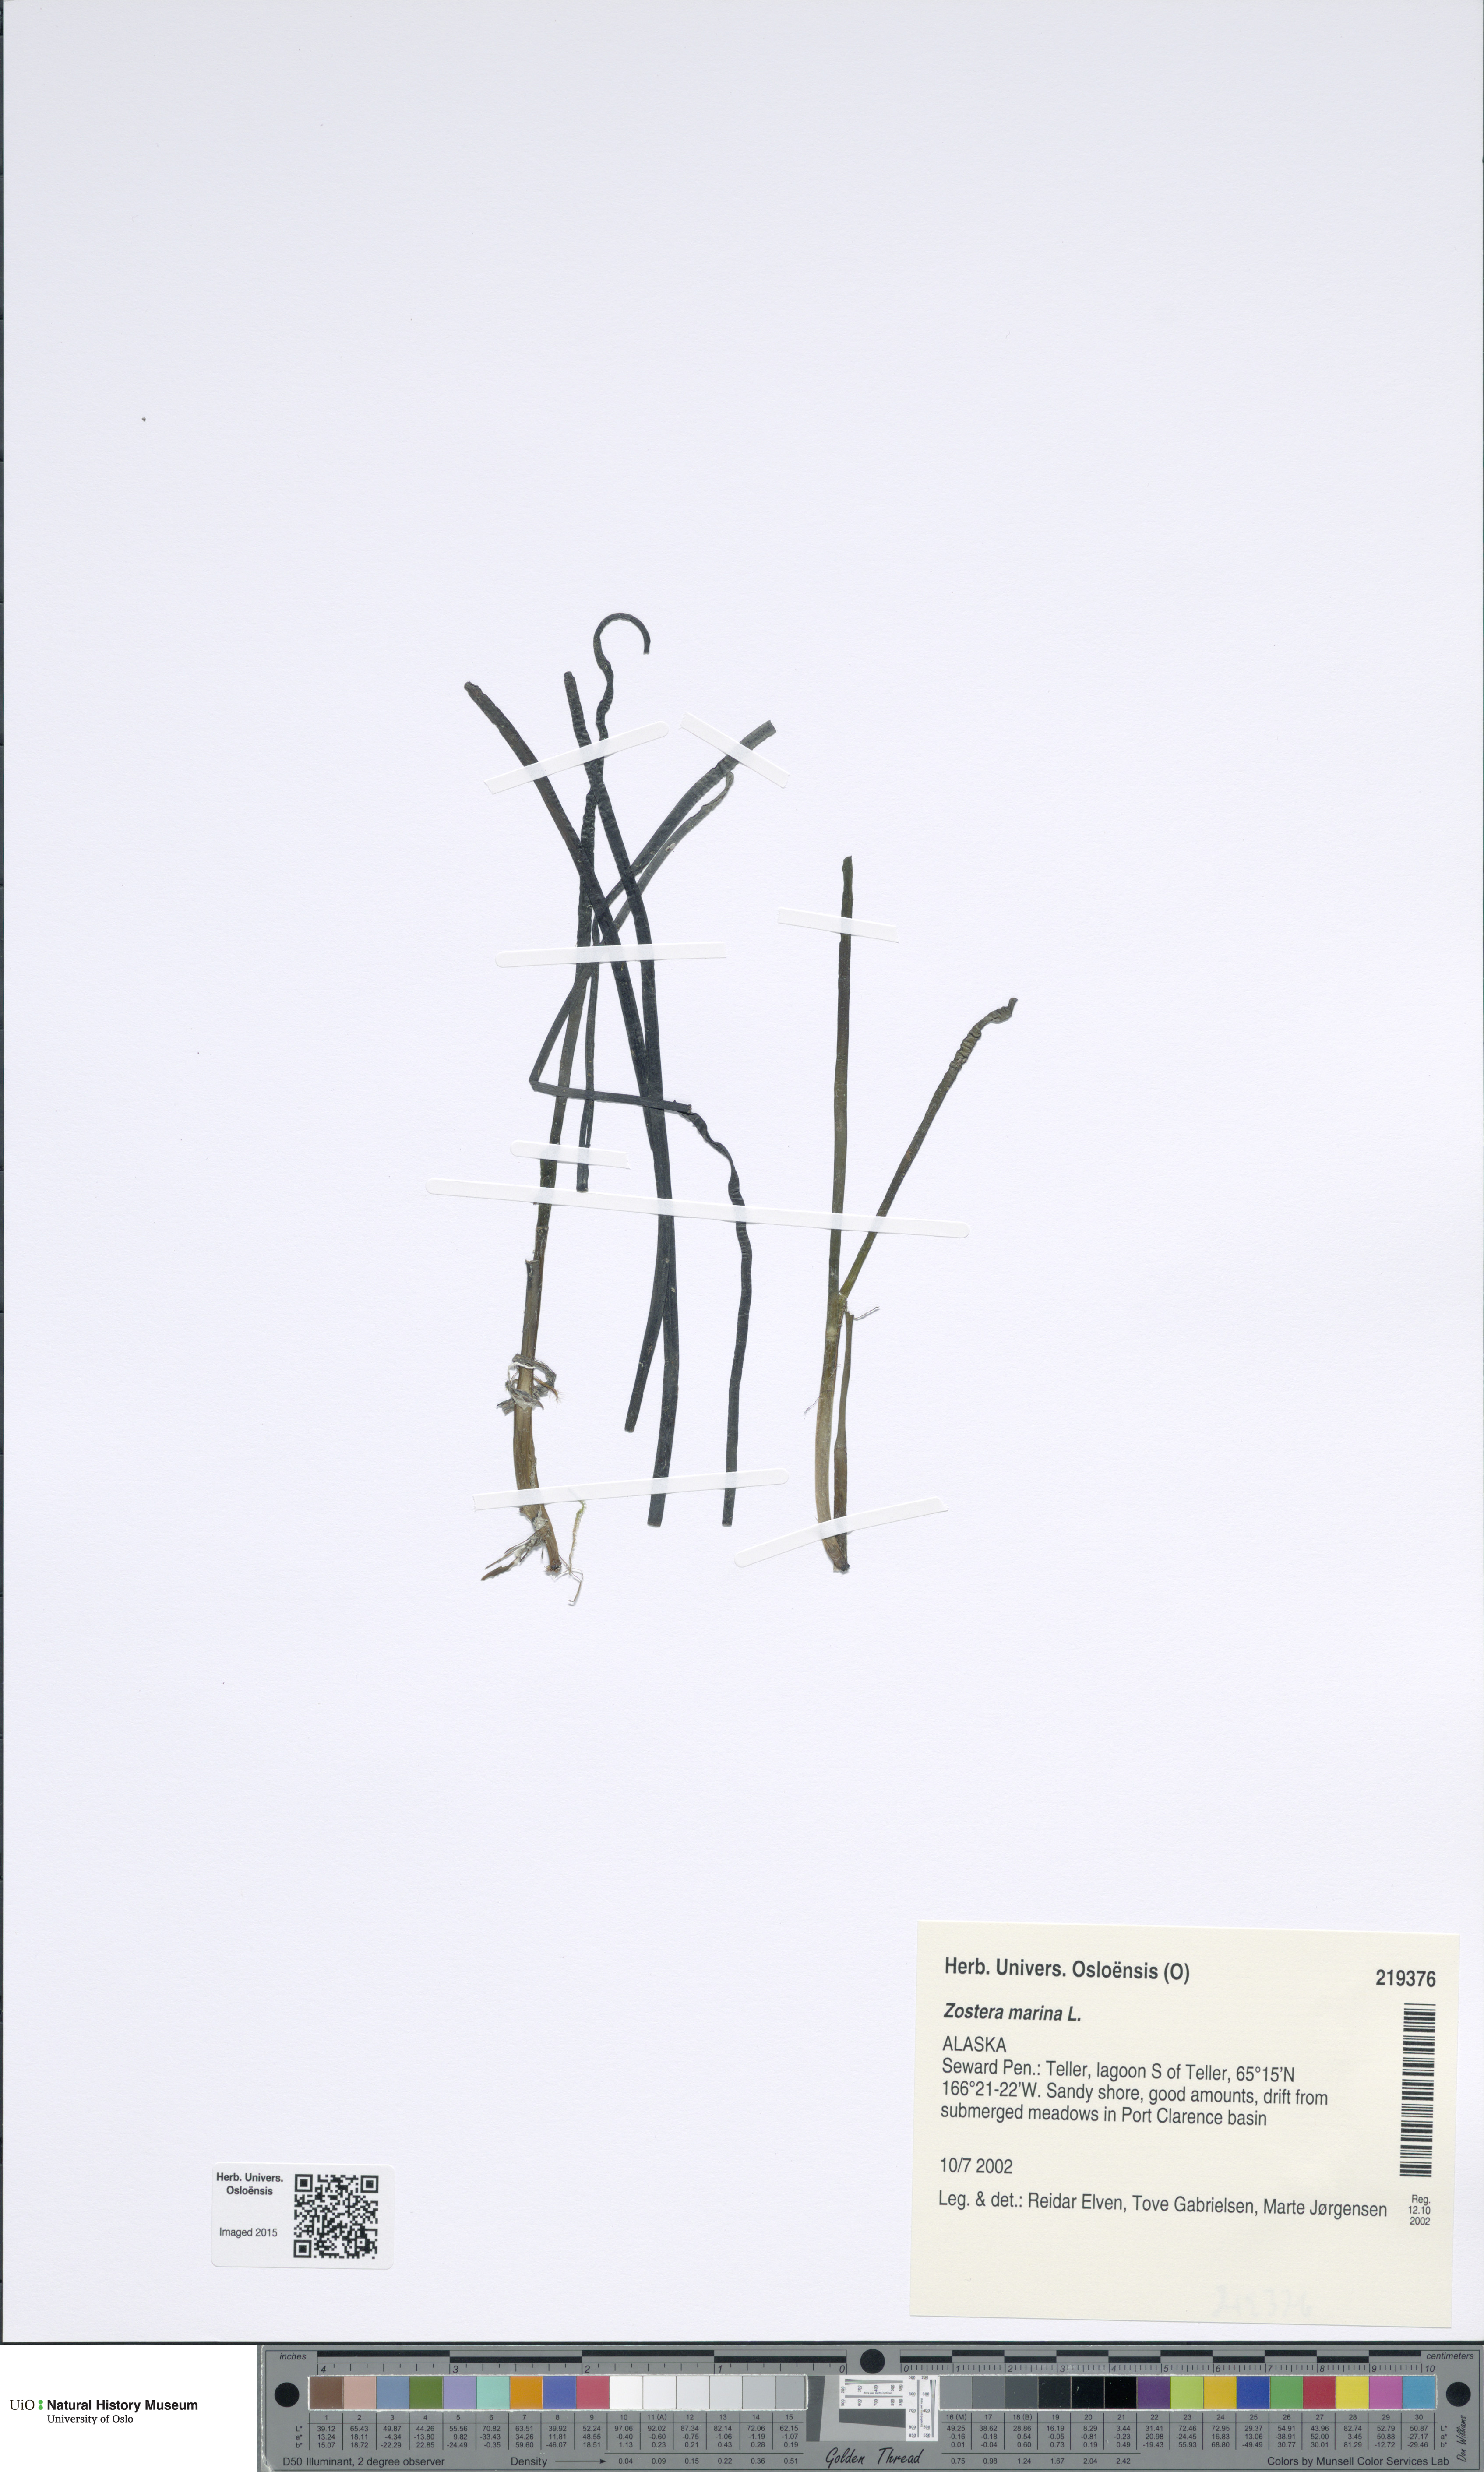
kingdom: Plantae
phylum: Tracheophyta
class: Liliopsida
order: Alismatales
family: Zosteraceae
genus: Zostera
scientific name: Zostera marina
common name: Eelgrass
